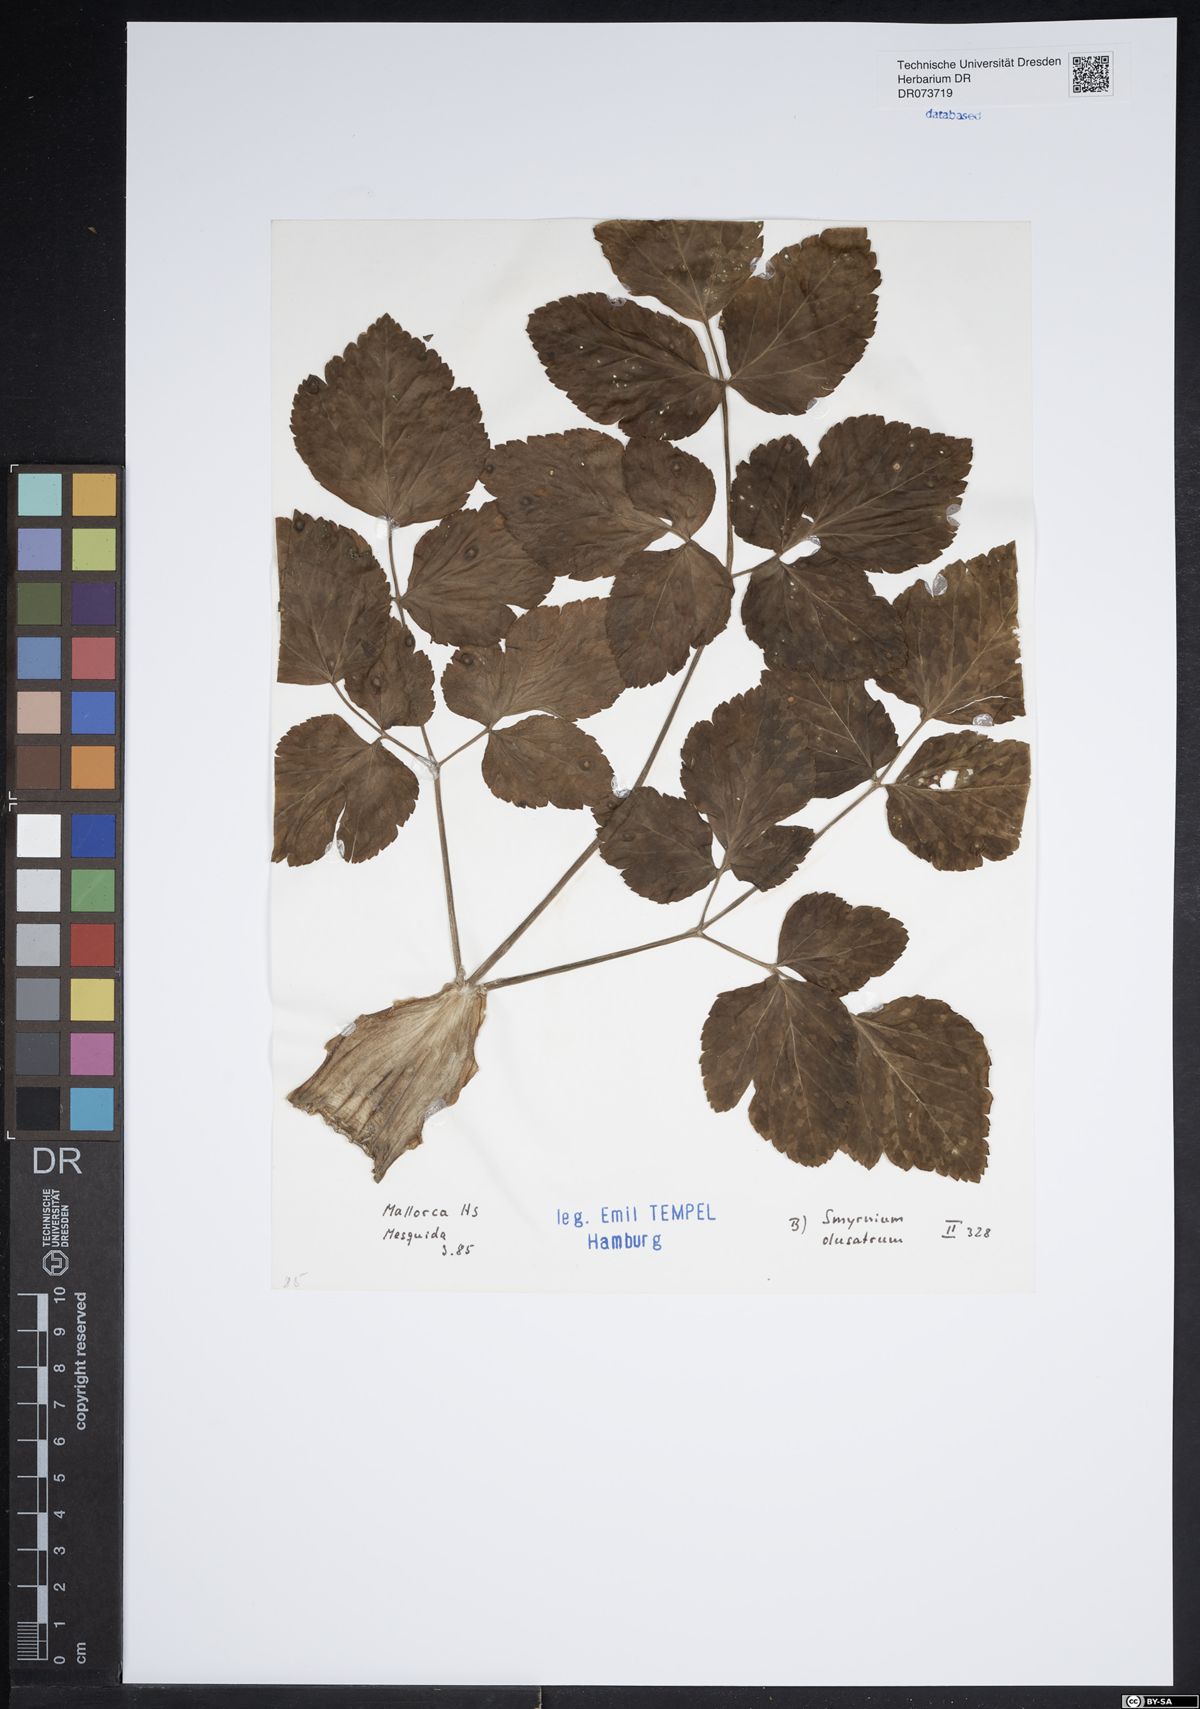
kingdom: Plantae
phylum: Tracheophyta
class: Magnoliopsida
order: Apiales
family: Apiaceae
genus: Smyrnium
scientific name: Smyrnium olusatrum
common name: Alexanders
